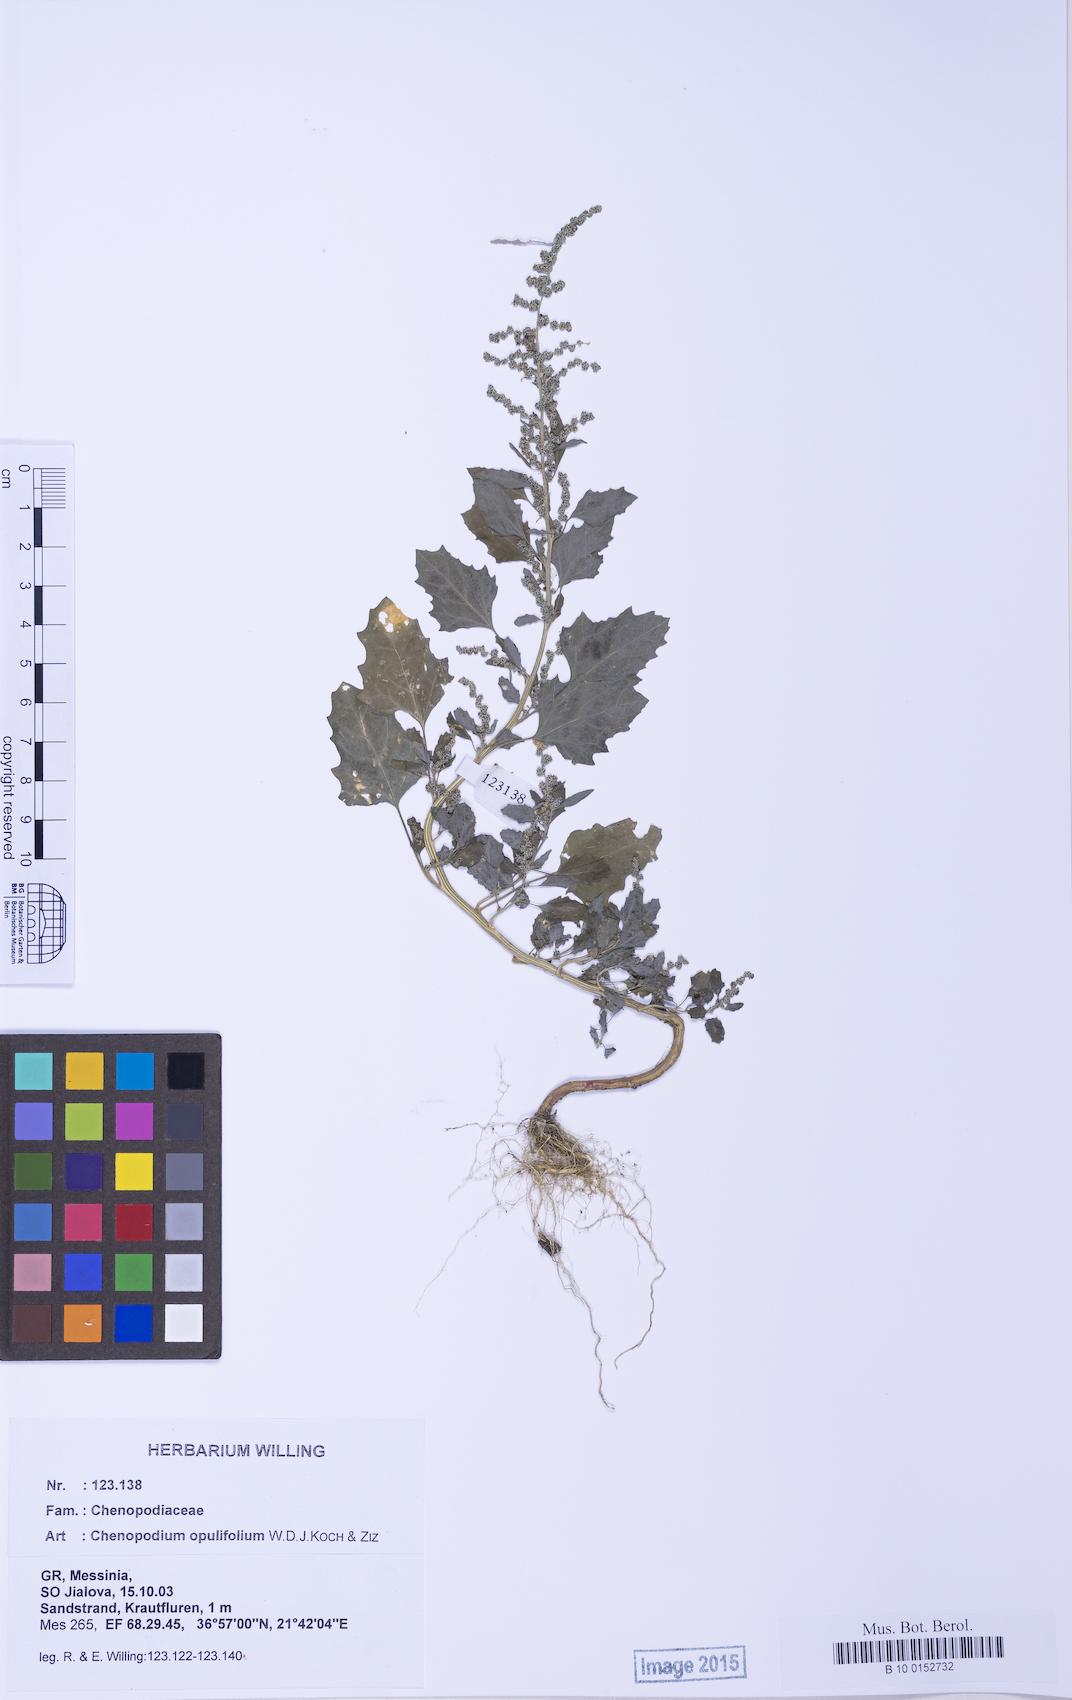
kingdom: Plantae
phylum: Tracheophyta
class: Magnoliopsida
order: Caryophyllales
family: Amaranthaceae
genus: Chenopodium
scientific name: Chenopodium album
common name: Fat-hen
